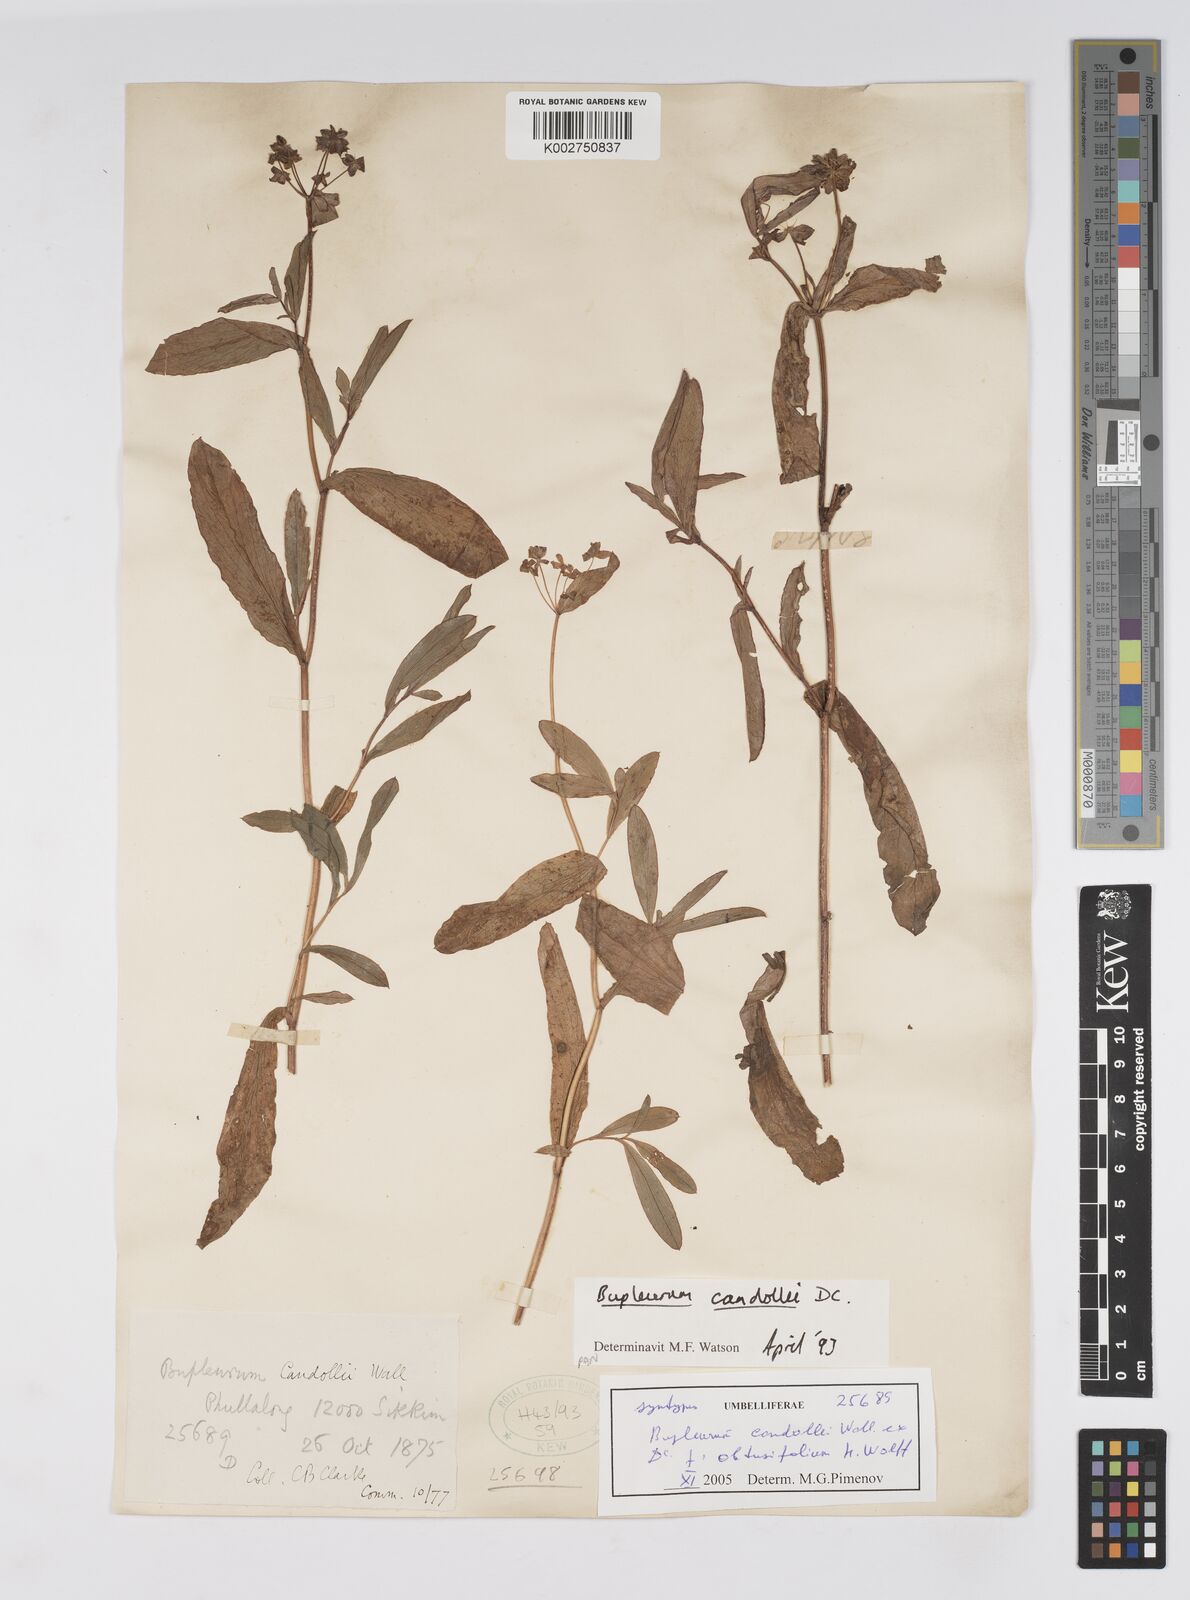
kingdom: Plantae
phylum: Tracheophyta
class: Magnoliopsida
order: Apiales
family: Apiaceae
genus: Bupleurum
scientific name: Bupleurum candollei
